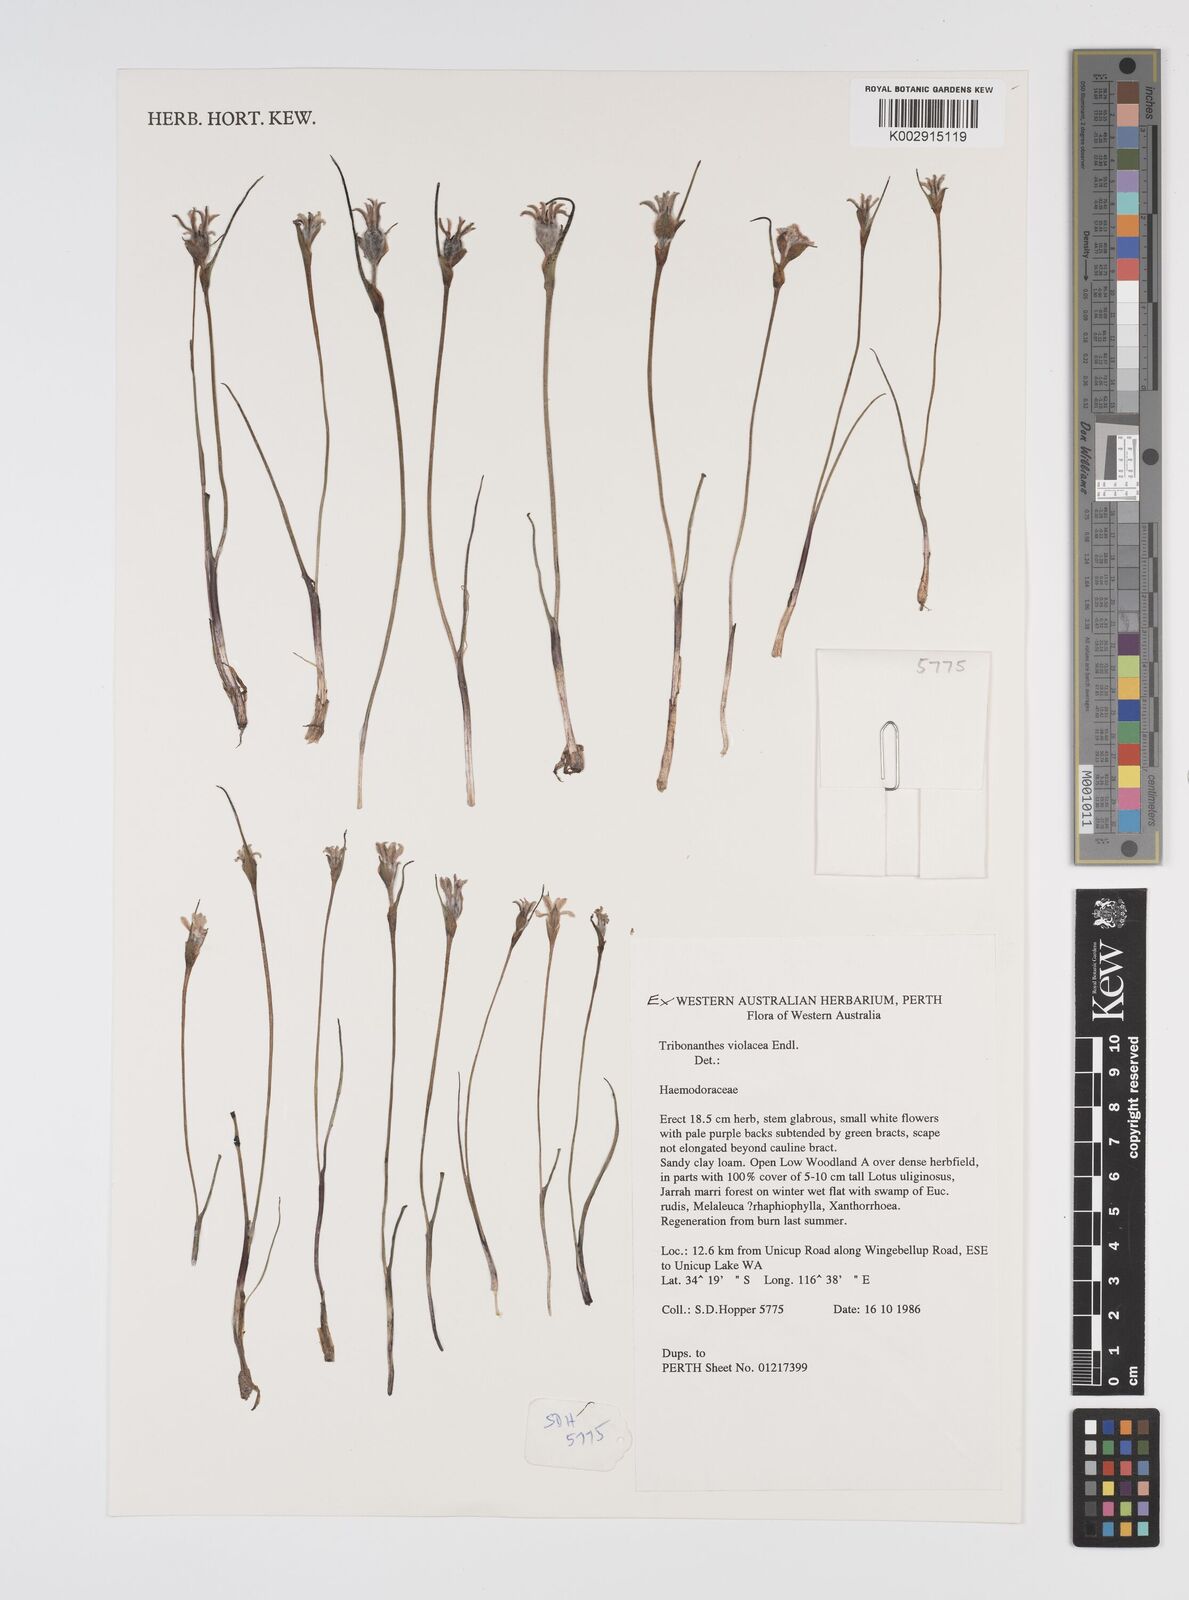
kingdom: Plantae
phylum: Tracheophyta
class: Liliopsida
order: Commelinales
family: Haemodoraceae
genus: Tribonanthes
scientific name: Tribonanthes violacea
